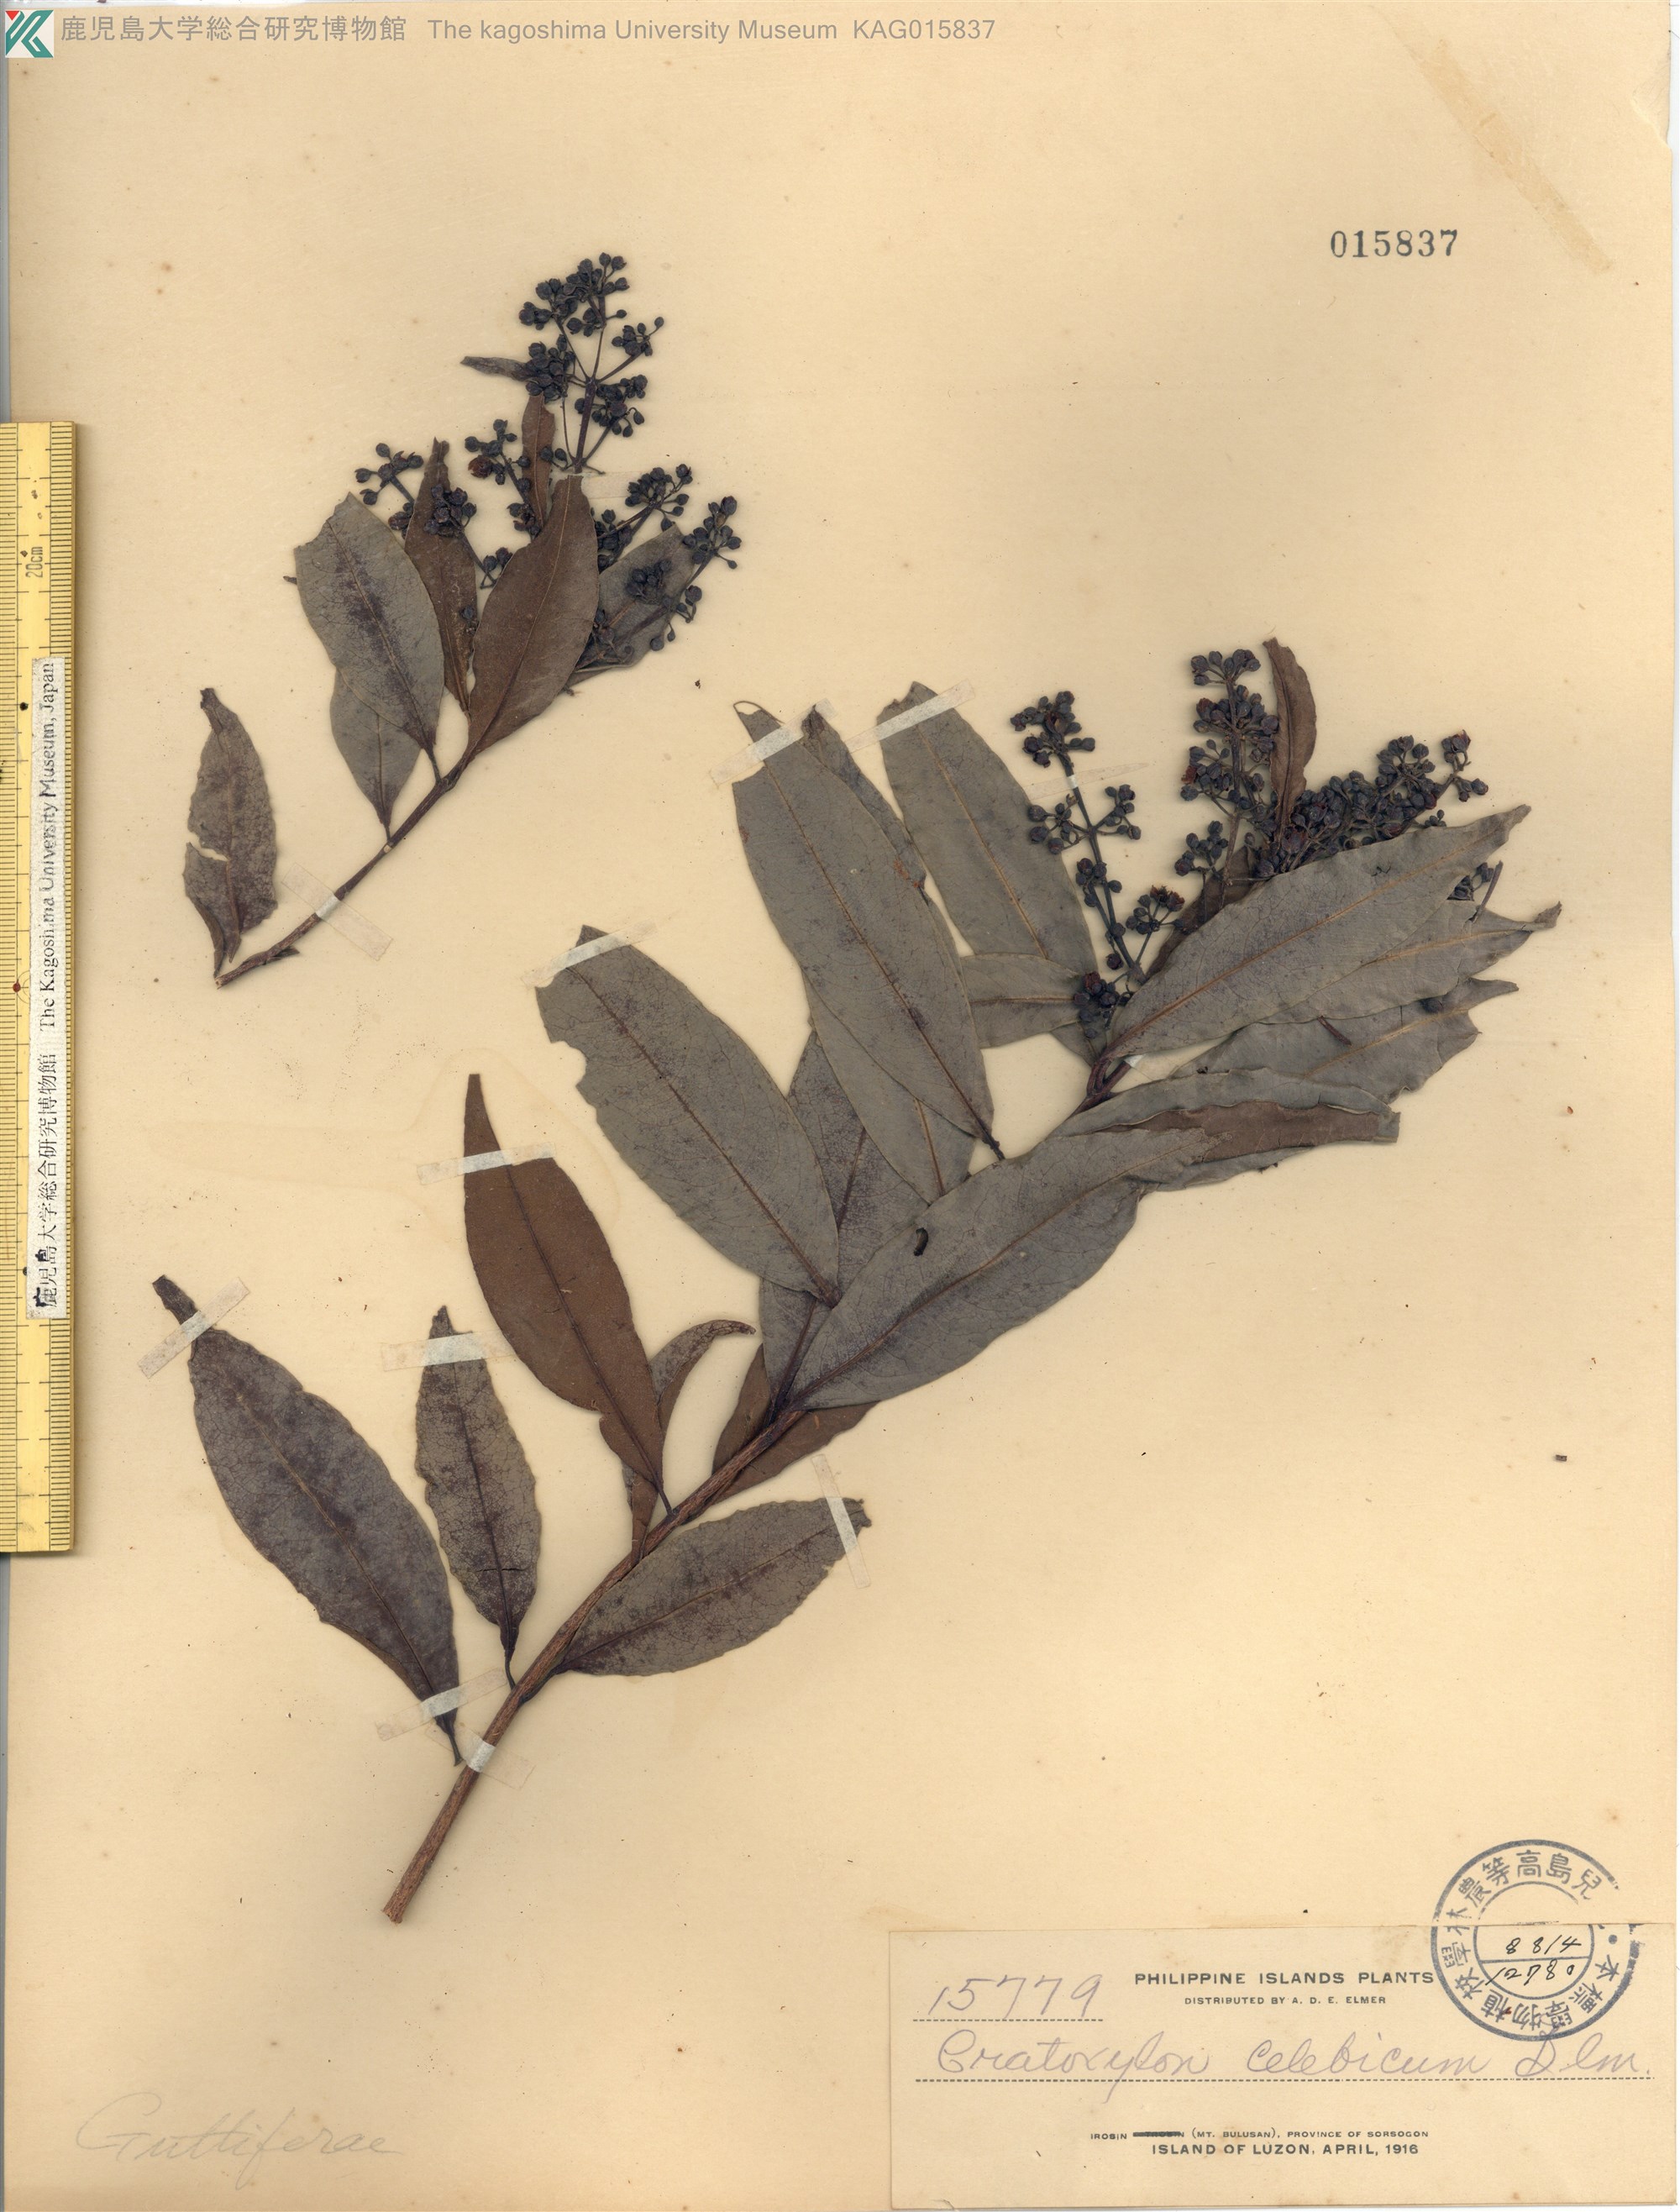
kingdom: Plantae
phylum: Tracheophyta
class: Magnoliopsida
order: Malpighiales
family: Hypericaceae
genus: Cratoxylum
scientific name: Cratoxylum sumatranum
